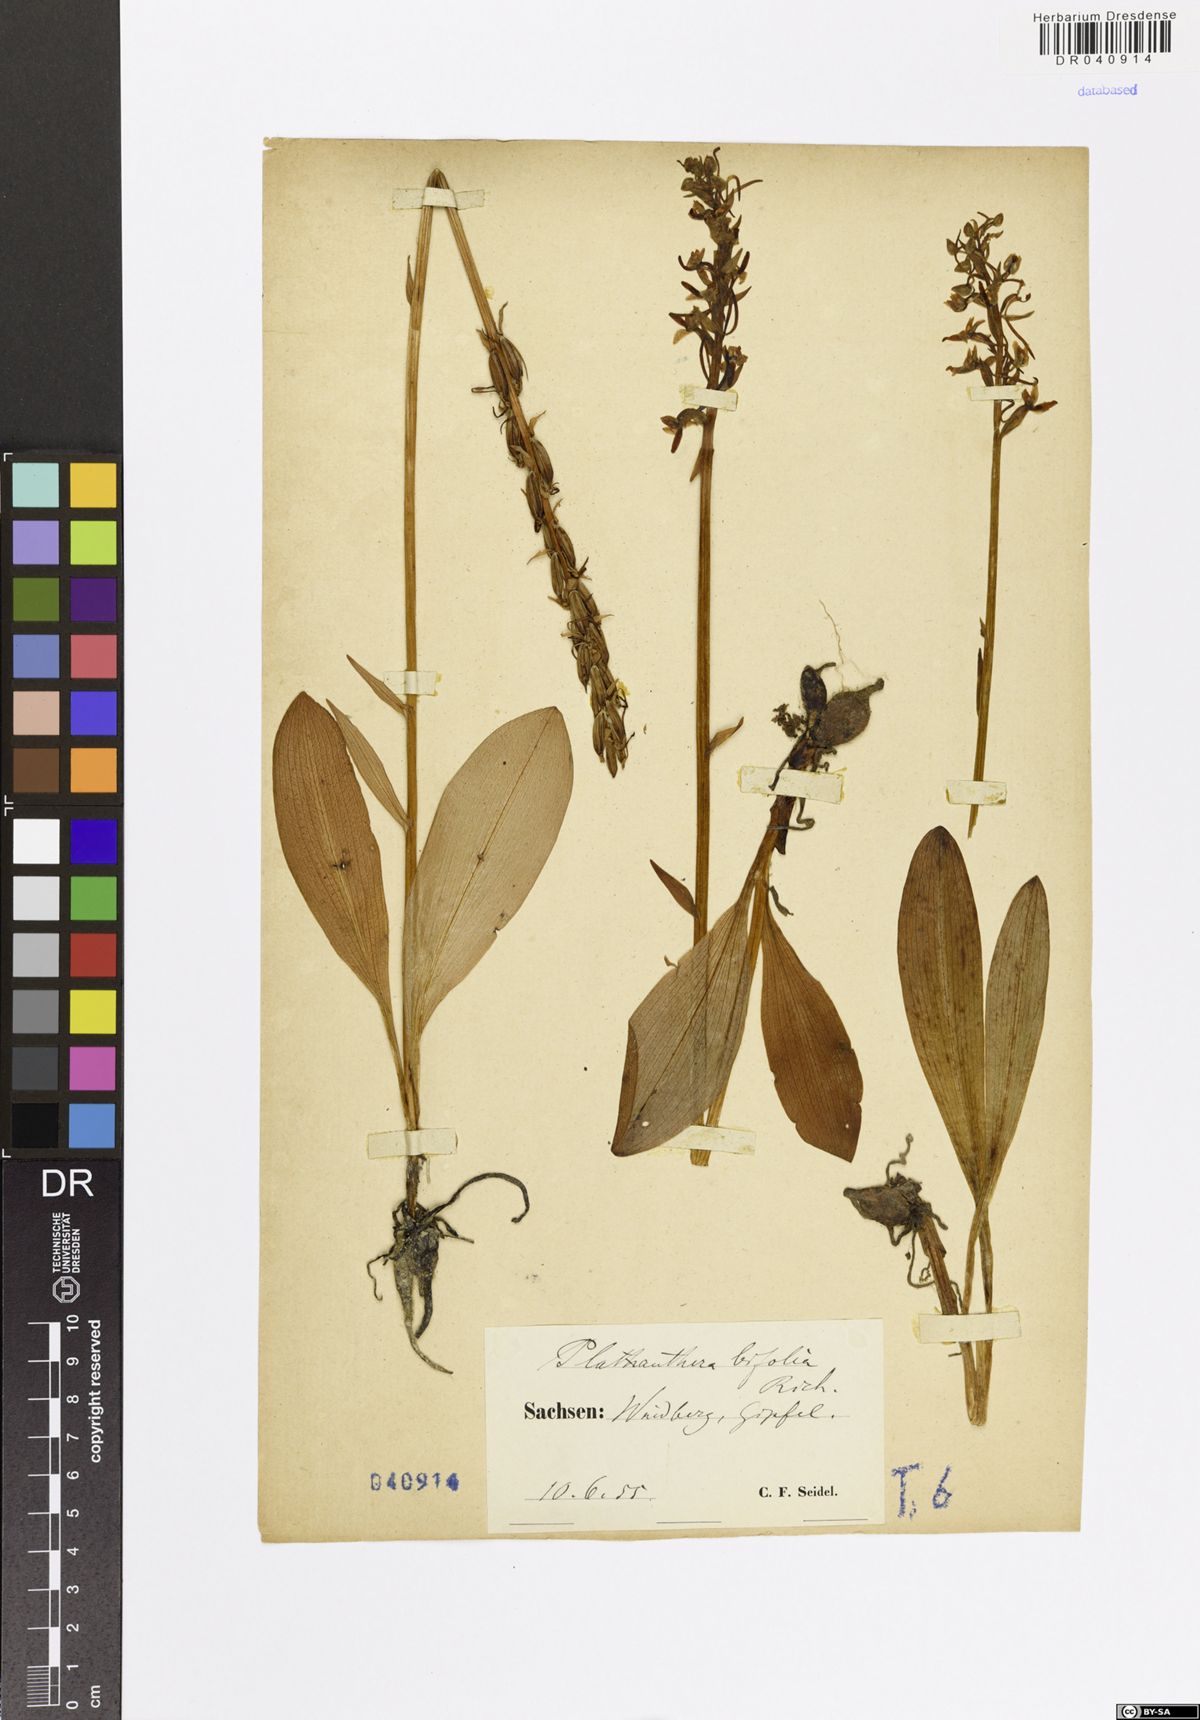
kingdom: Plantae
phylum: Tracheophyta
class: Liliopsida
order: Asparagales
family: Orchidaceae
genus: Platanthera
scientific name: Platanthera bifolia
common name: Lesser butterfly-orchid
